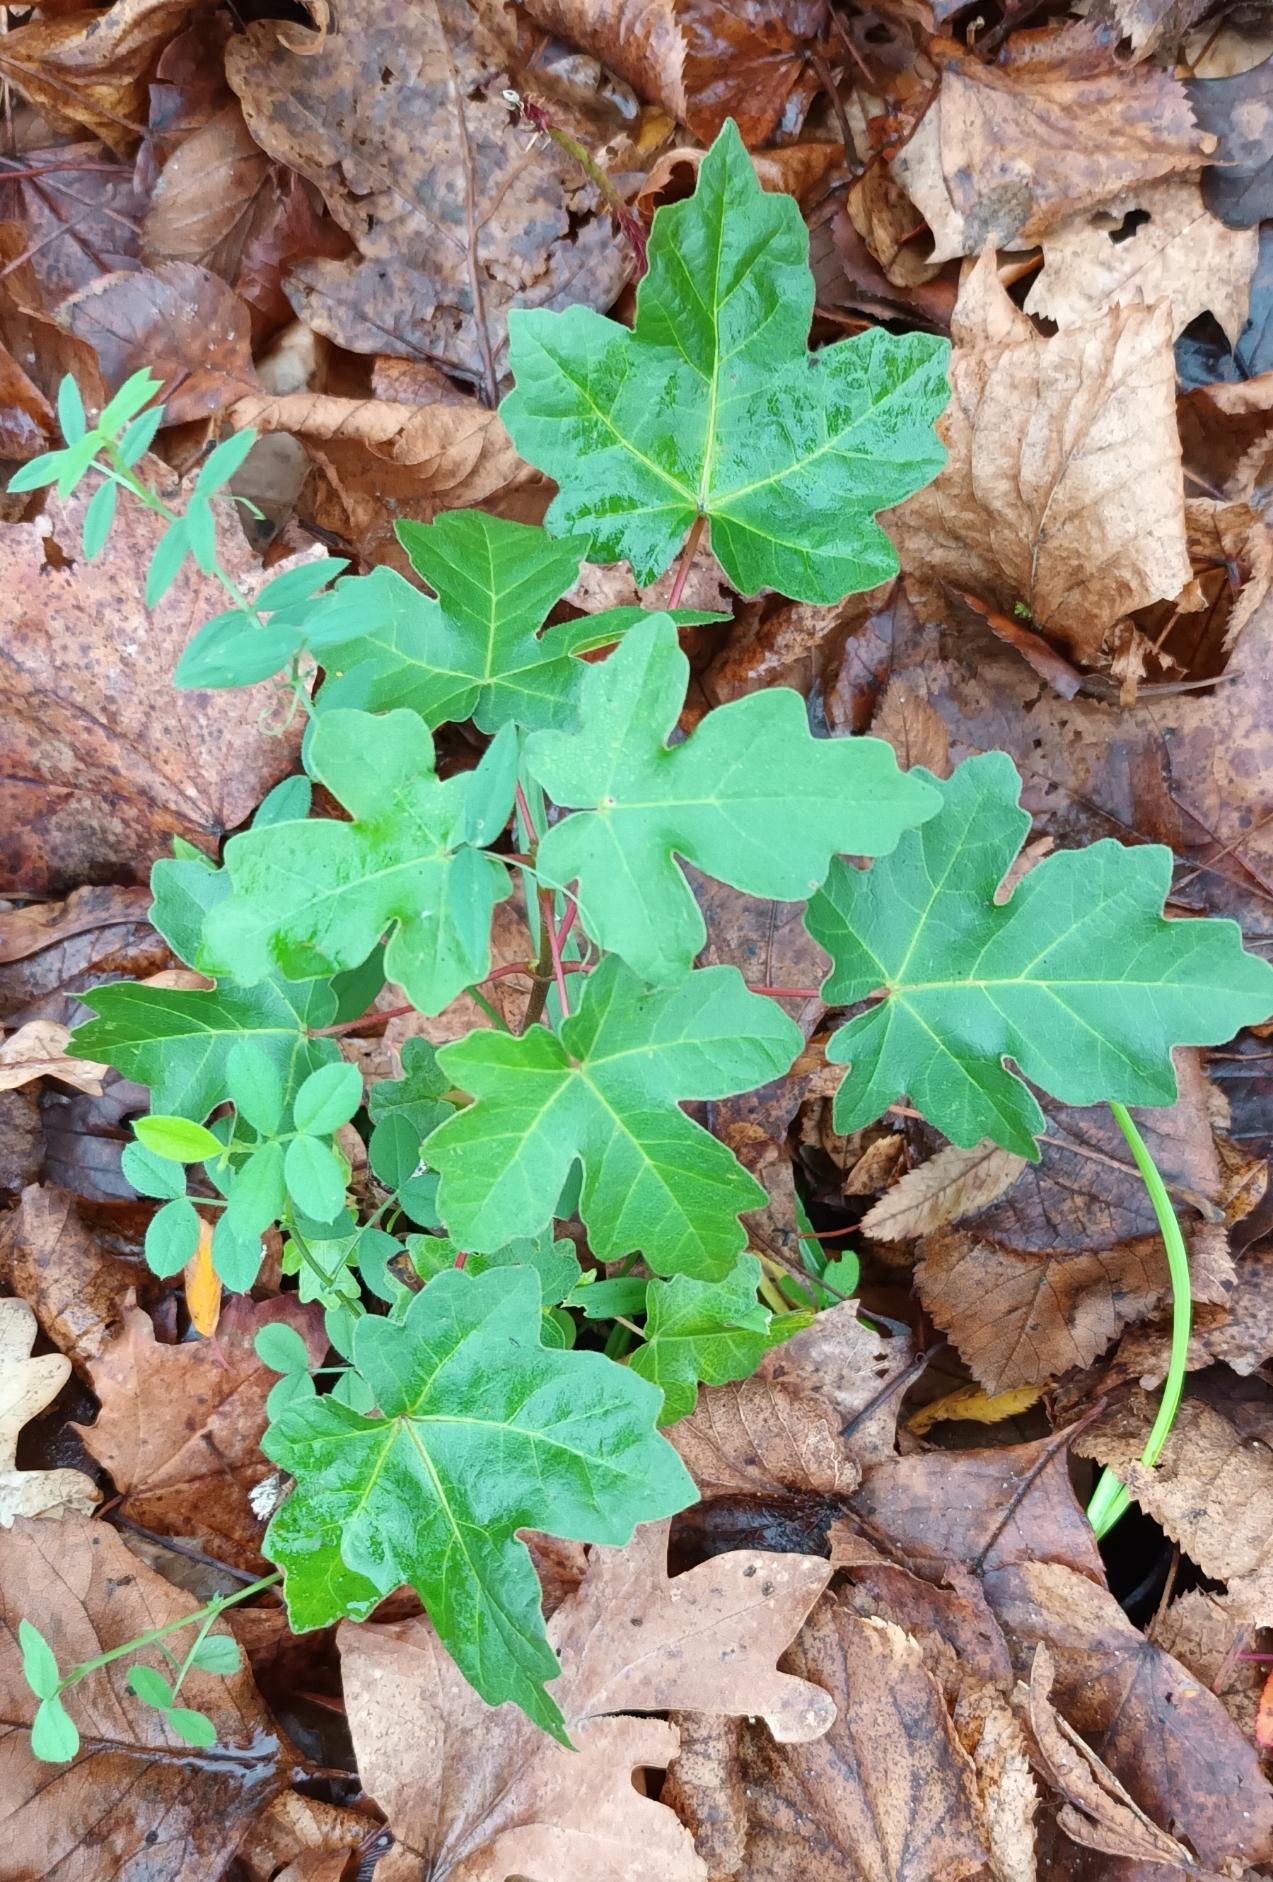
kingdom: Plantae
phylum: Tracheophyta
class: Magnoliopsida
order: Sapindales
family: Sapindaceae
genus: Acer
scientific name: Acer campestre
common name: Navr
